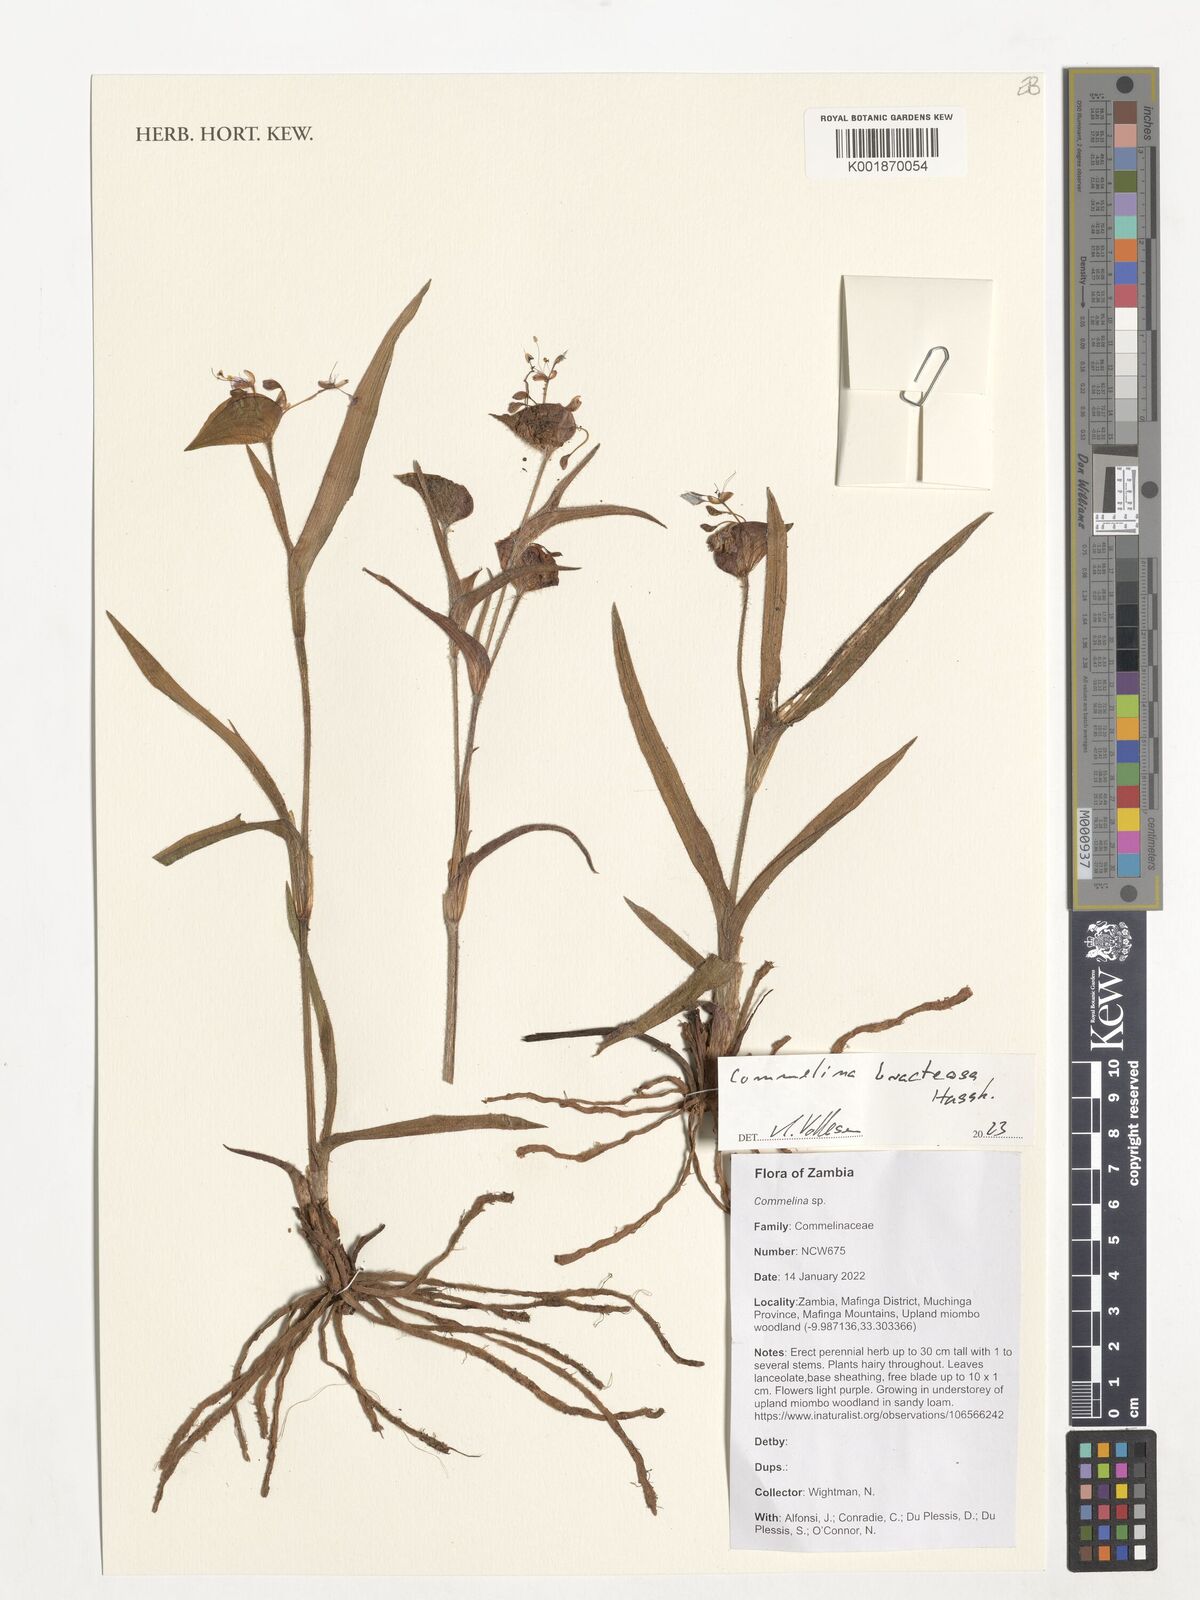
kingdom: Plantae
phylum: Tracheophyta
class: Liliopsida
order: Commelinales
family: Commelinaceae
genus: Commelina
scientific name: Commelina
